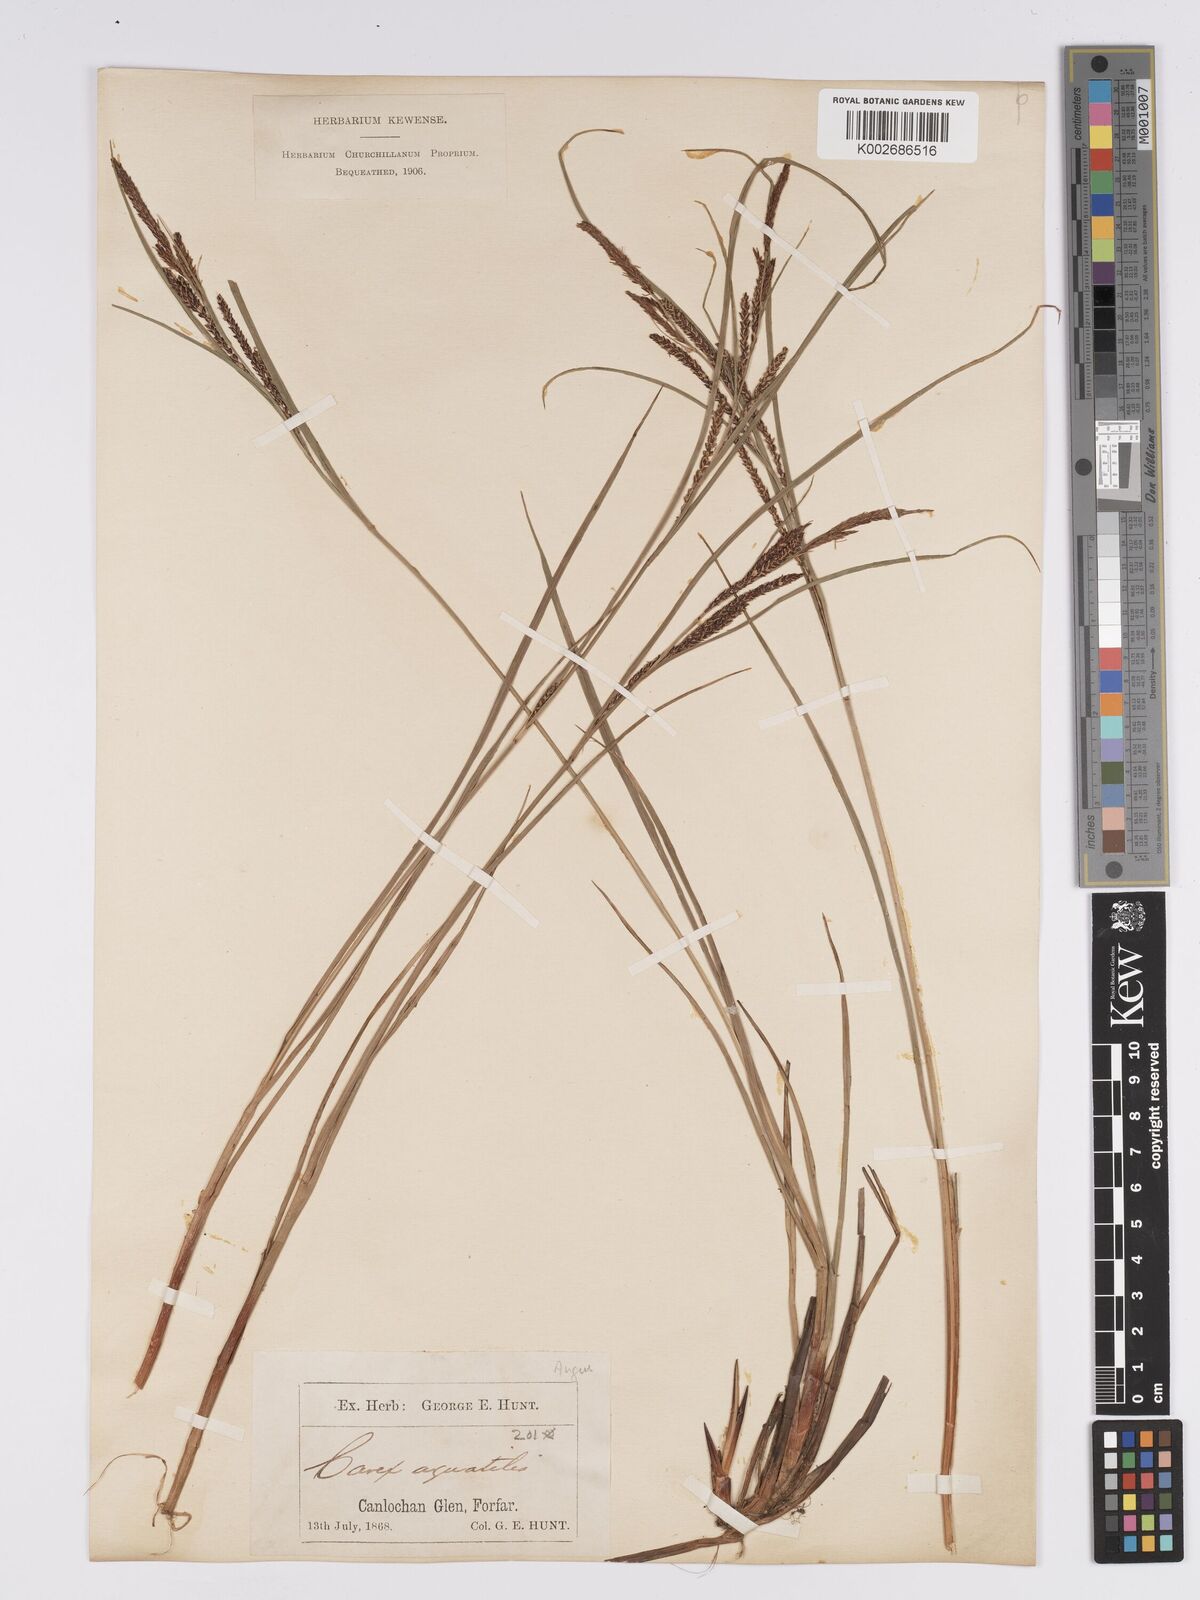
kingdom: Plantae
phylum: Tracheophyta
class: Liliopsida
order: Poales
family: Cyperaceae
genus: Carex
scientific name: Carex aquatilis
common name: Water sedge
